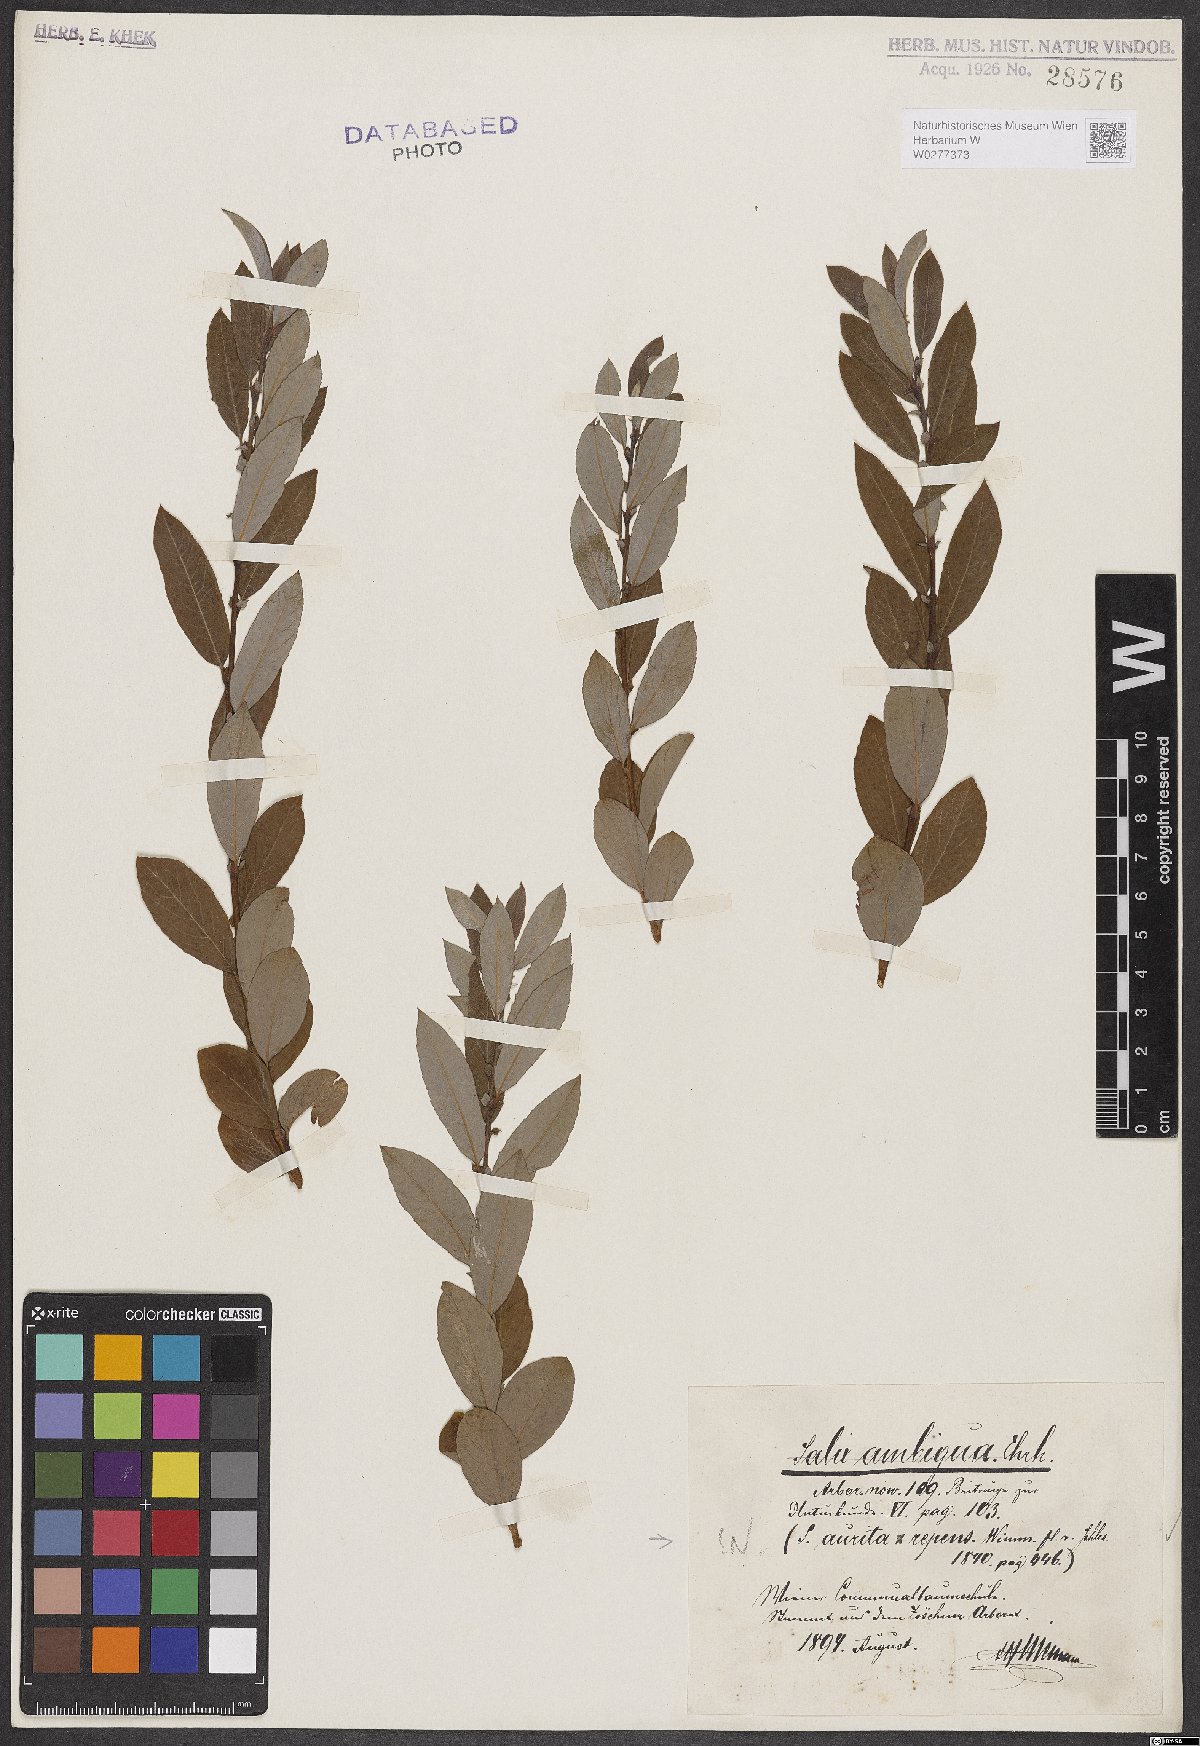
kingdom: Plantae
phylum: Tracheophyta
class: Magnoliopsida
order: Malpighiales
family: Salicaceae
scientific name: Salicaceae
